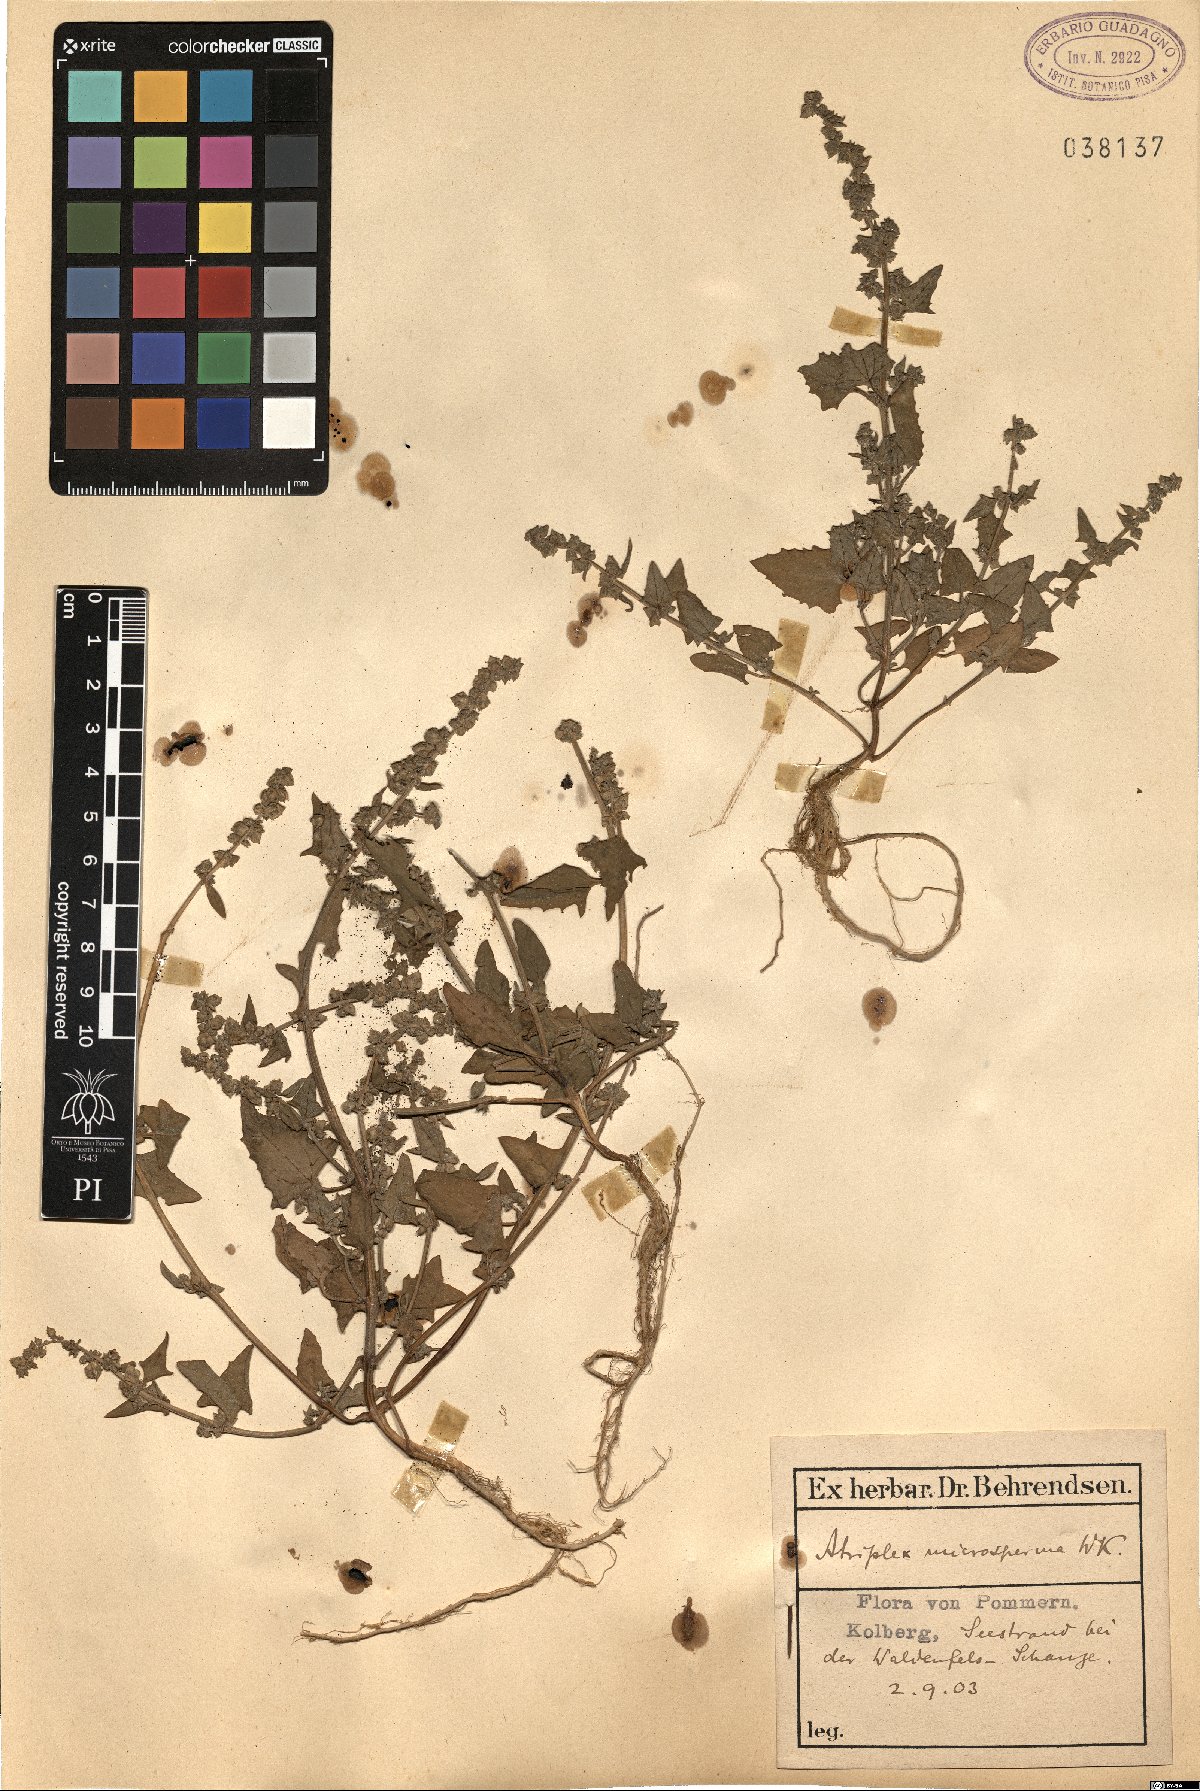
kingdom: Plantae
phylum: Tracheophyta
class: Magnoliopsida
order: Caryophyllales
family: Amaranthaceae
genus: Atriplex
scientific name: Atriplex prostrata
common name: Spear-leaved orache
